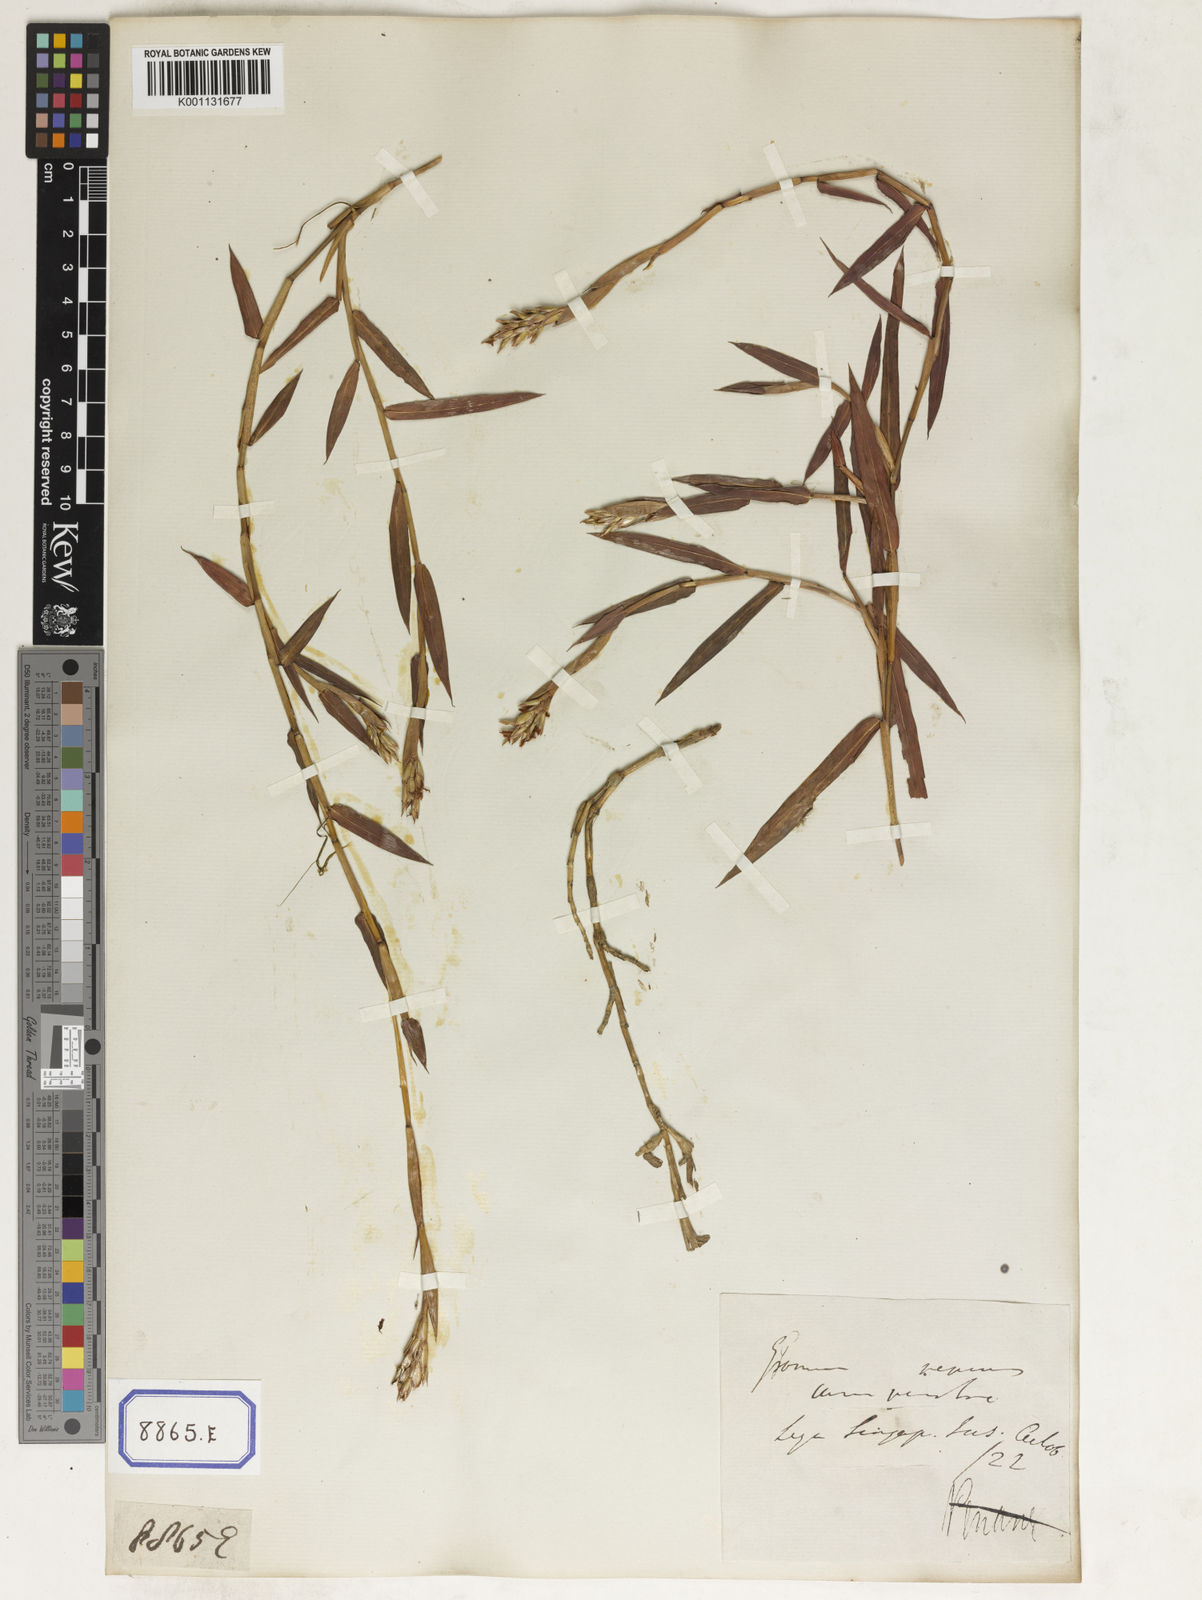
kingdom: Plantae
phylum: Tracheophyta
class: Liliopsida
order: Poales
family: Poaceae
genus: Ischaemum
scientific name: Ischaemum muticum
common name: Drought grass
